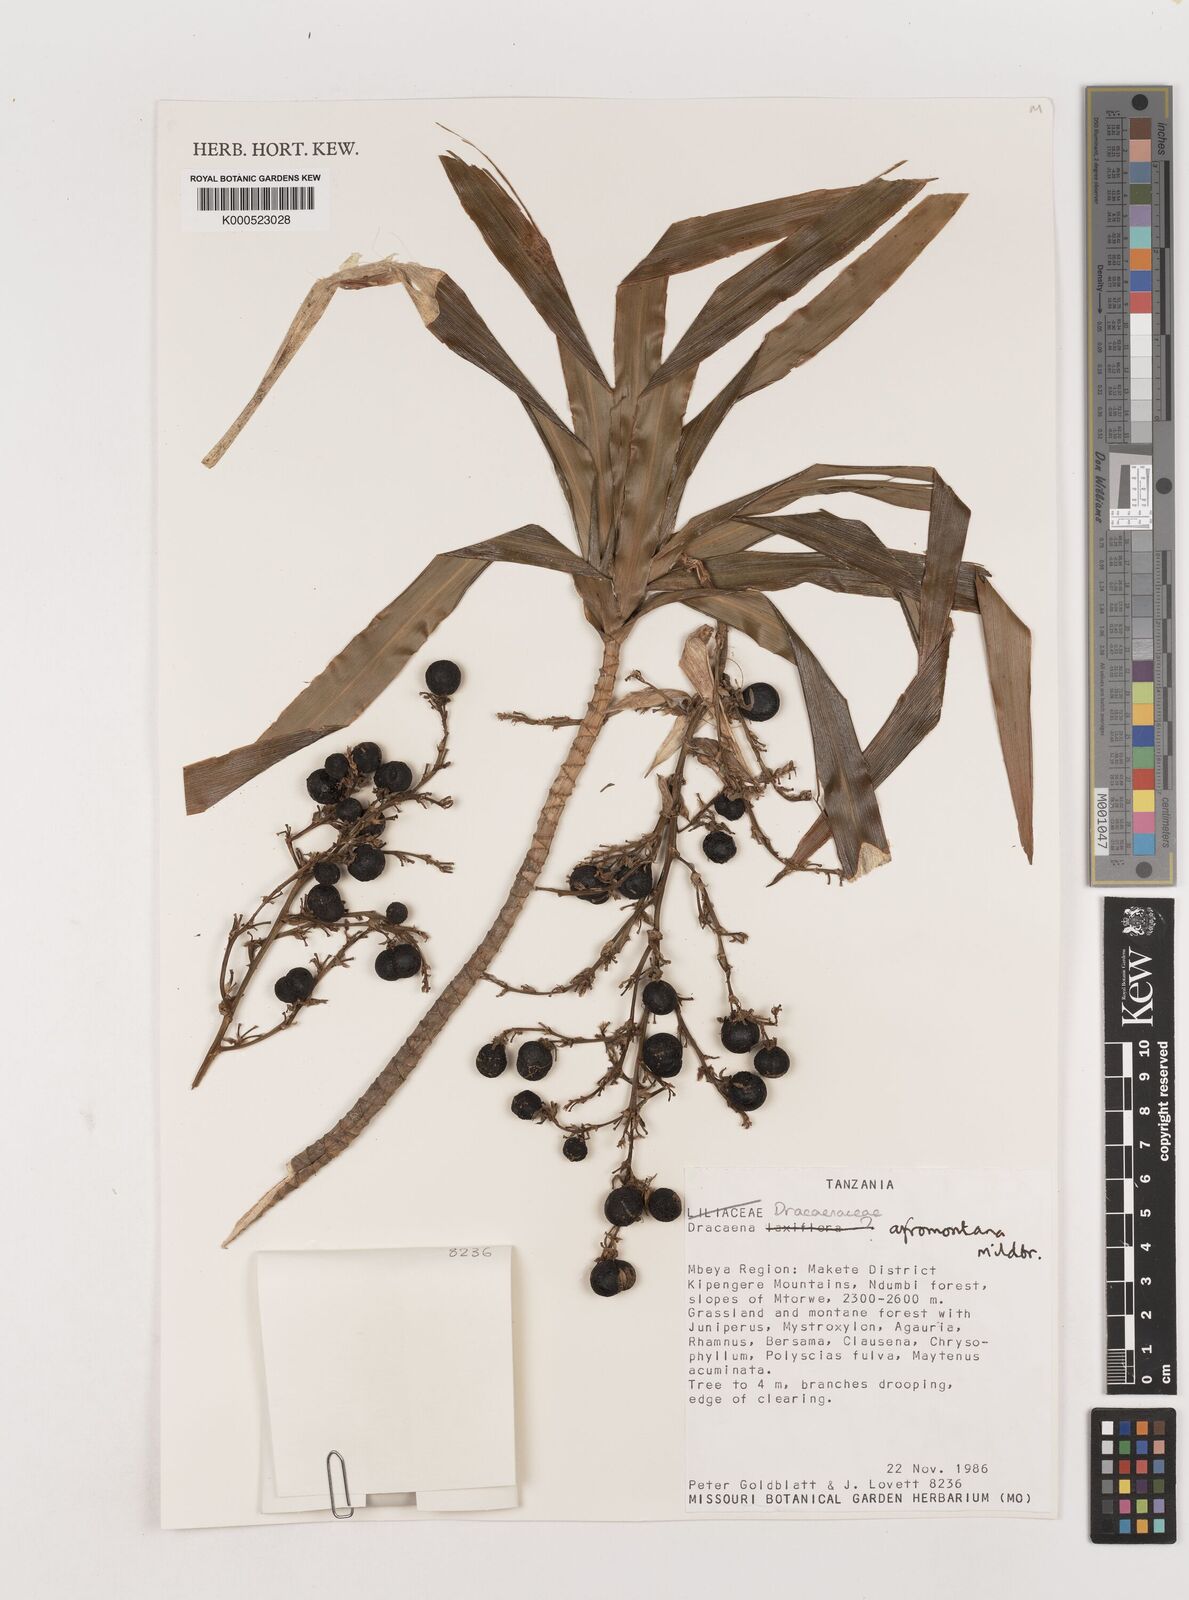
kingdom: Plantae
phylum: Tracheophyta
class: Liliopsida
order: Asparagales
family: Asparagaceae
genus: Dracaena
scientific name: Dracaena afromontana
